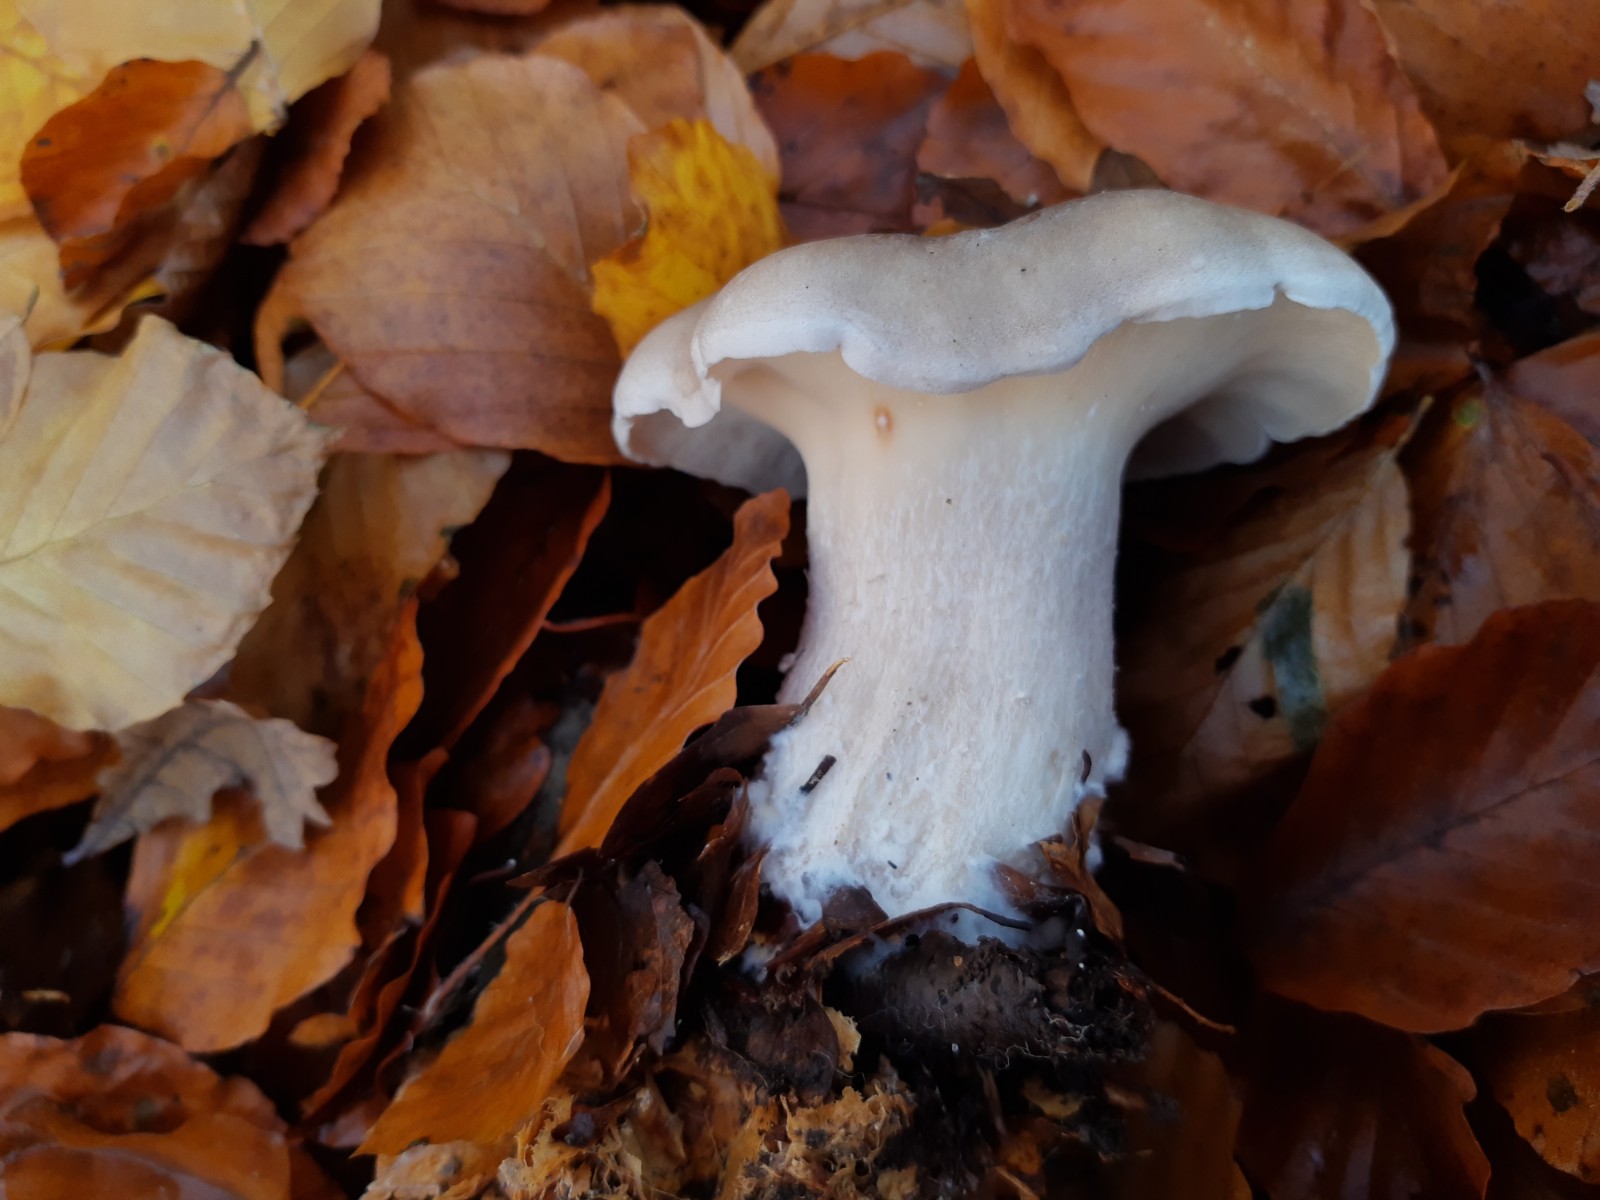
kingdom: Fungi
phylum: Basidiomycota
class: Agaricomycetes
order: Agaricales
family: Tricholomataceae
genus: Clitocybe
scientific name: Clitocybe nebularis
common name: tåge-tragthat
